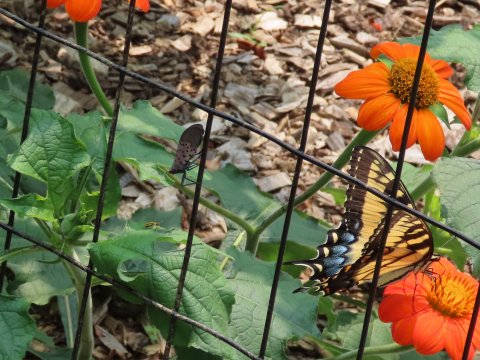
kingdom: Animalia
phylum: Arthropoda
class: Insecta
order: Lepidoptera
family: Papilionidae
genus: Pterourus
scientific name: Pterourus glaucus
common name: Eastern Tiger Swallowtail
